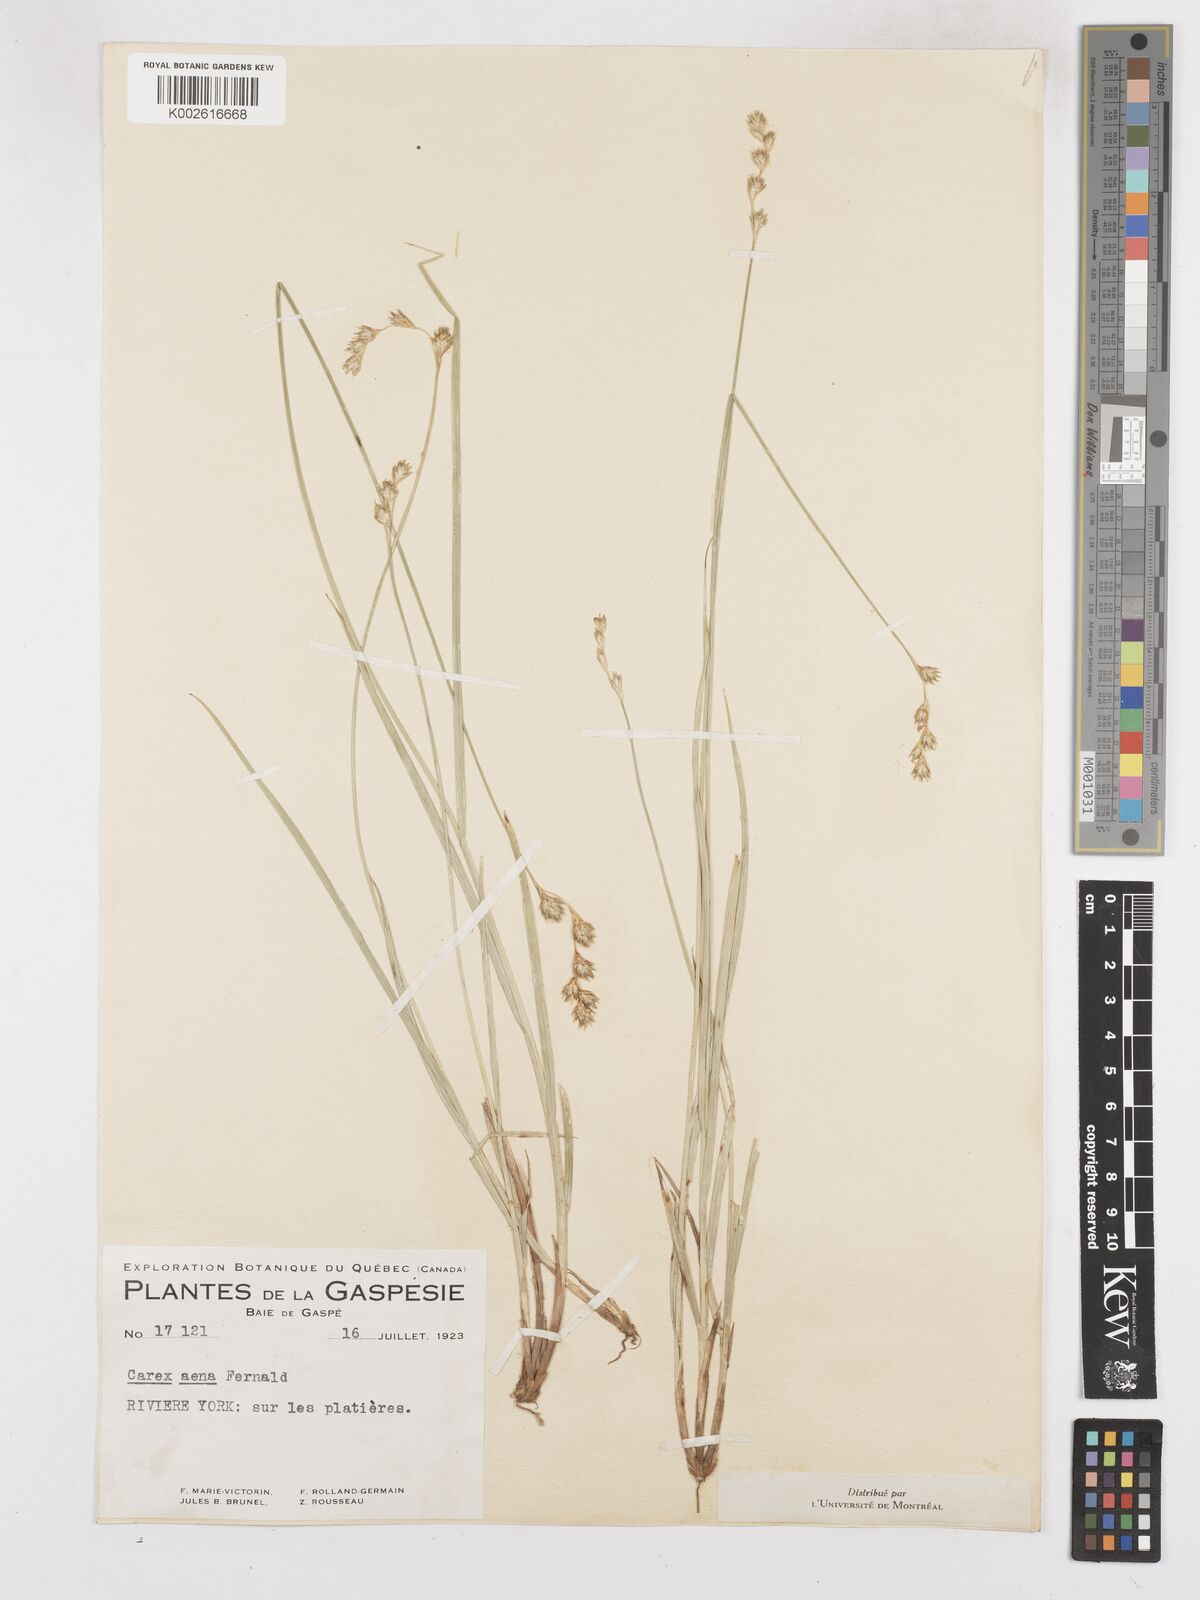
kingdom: Plantae
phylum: Tracheophyta
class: Liliopsida
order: Poales
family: Cyperaceae
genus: Carex
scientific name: Carex foenea
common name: Bronze sedge
